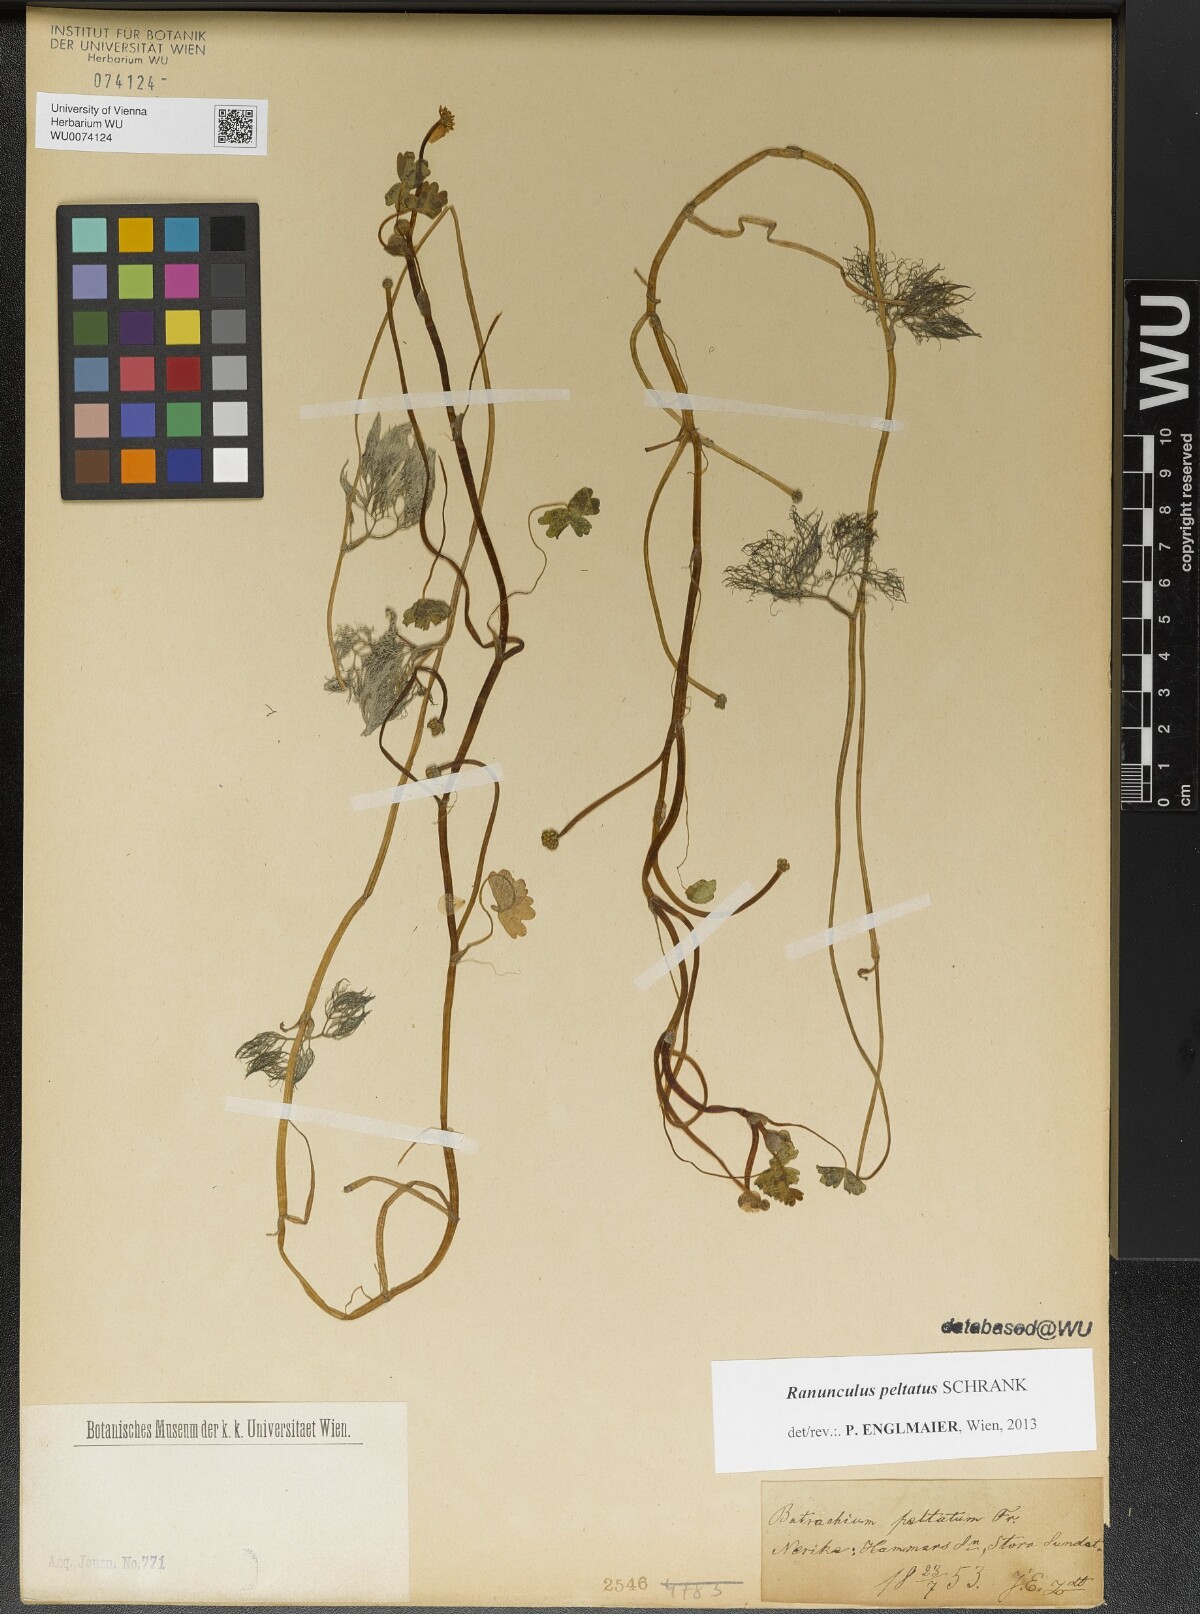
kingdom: Plantae
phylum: Tracheophyta
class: Magnoliopsida
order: Ranunculales
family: Ranunculaceae
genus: Ranunculus
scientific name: Ranunculus peltatus
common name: Pond water-crowfoot
